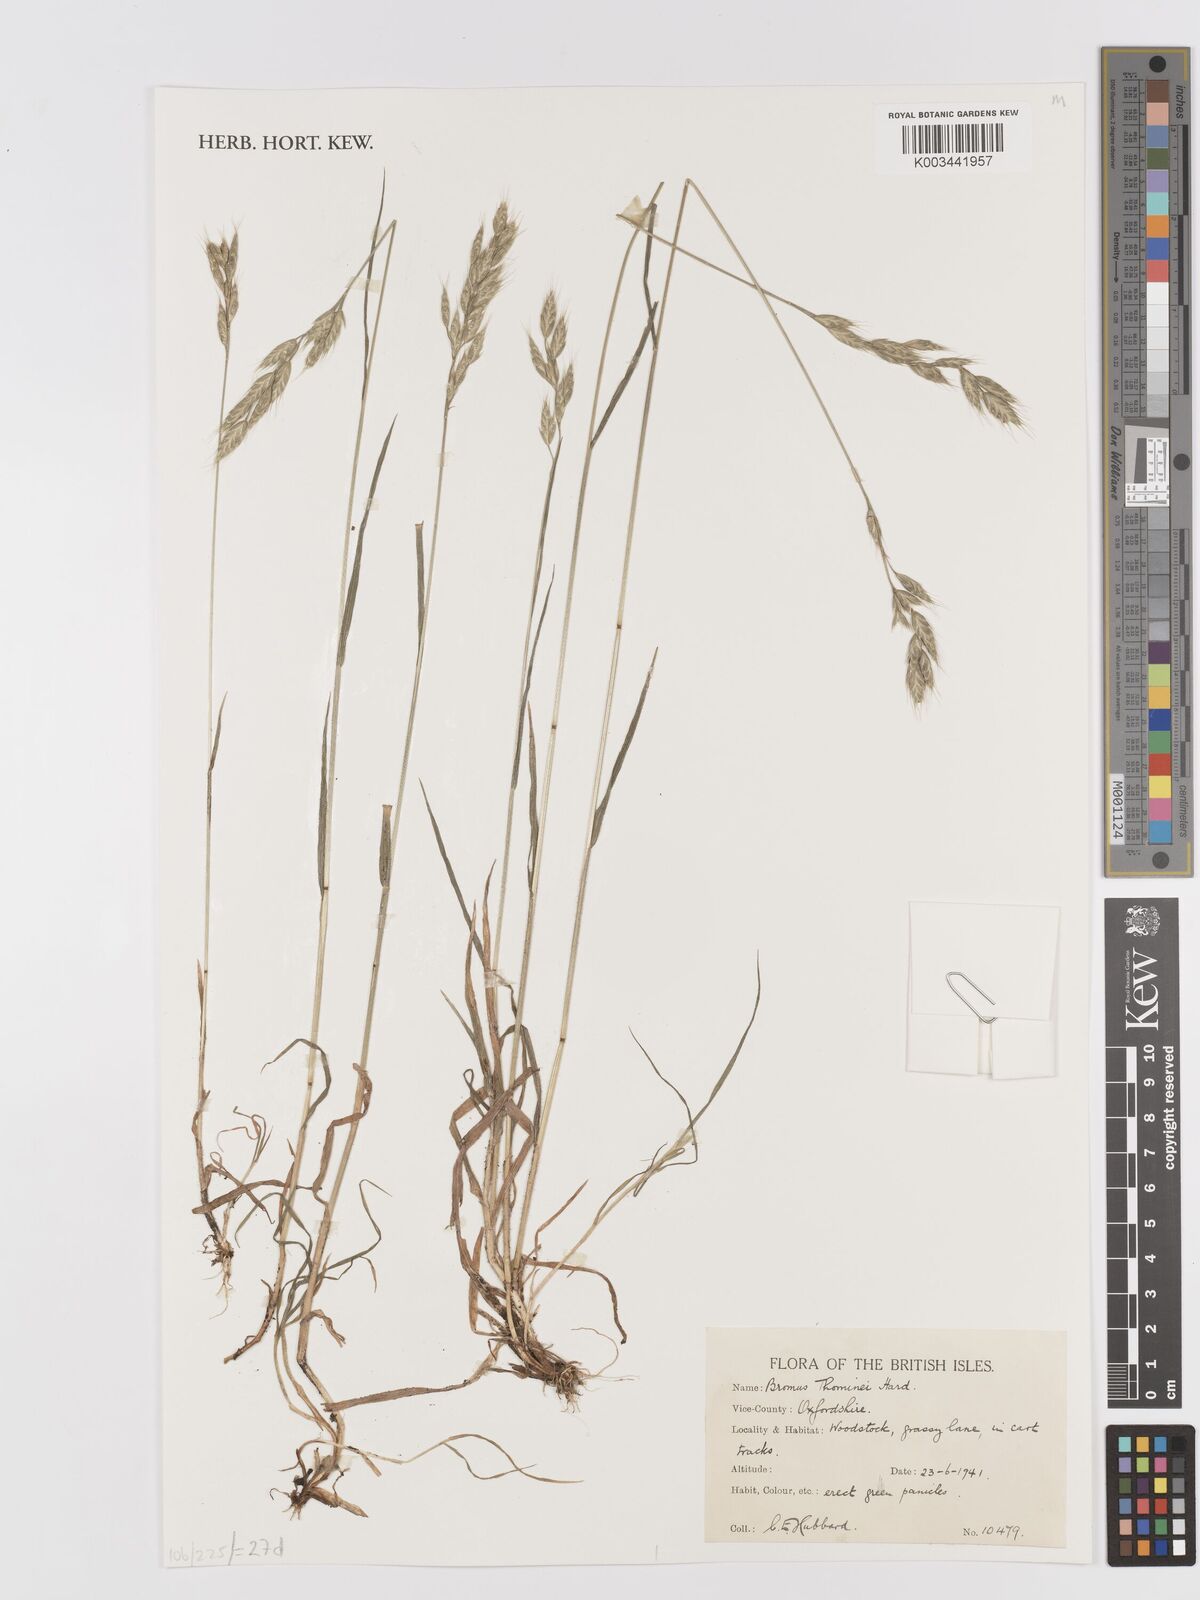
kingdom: Plantae
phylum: Tracheophyta
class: Liliopsida
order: Poales
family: Poaceae
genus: Bromus
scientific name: Bromus hordeaceus
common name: Soft brome
